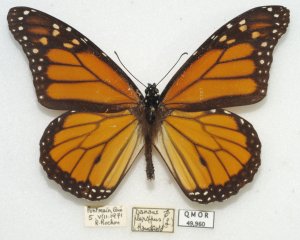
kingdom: Animalia
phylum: Arthropoda
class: Insecta
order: Lepidoptera
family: Nymphalidae
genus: Danaus
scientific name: Danaus plexippus
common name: Monarch
